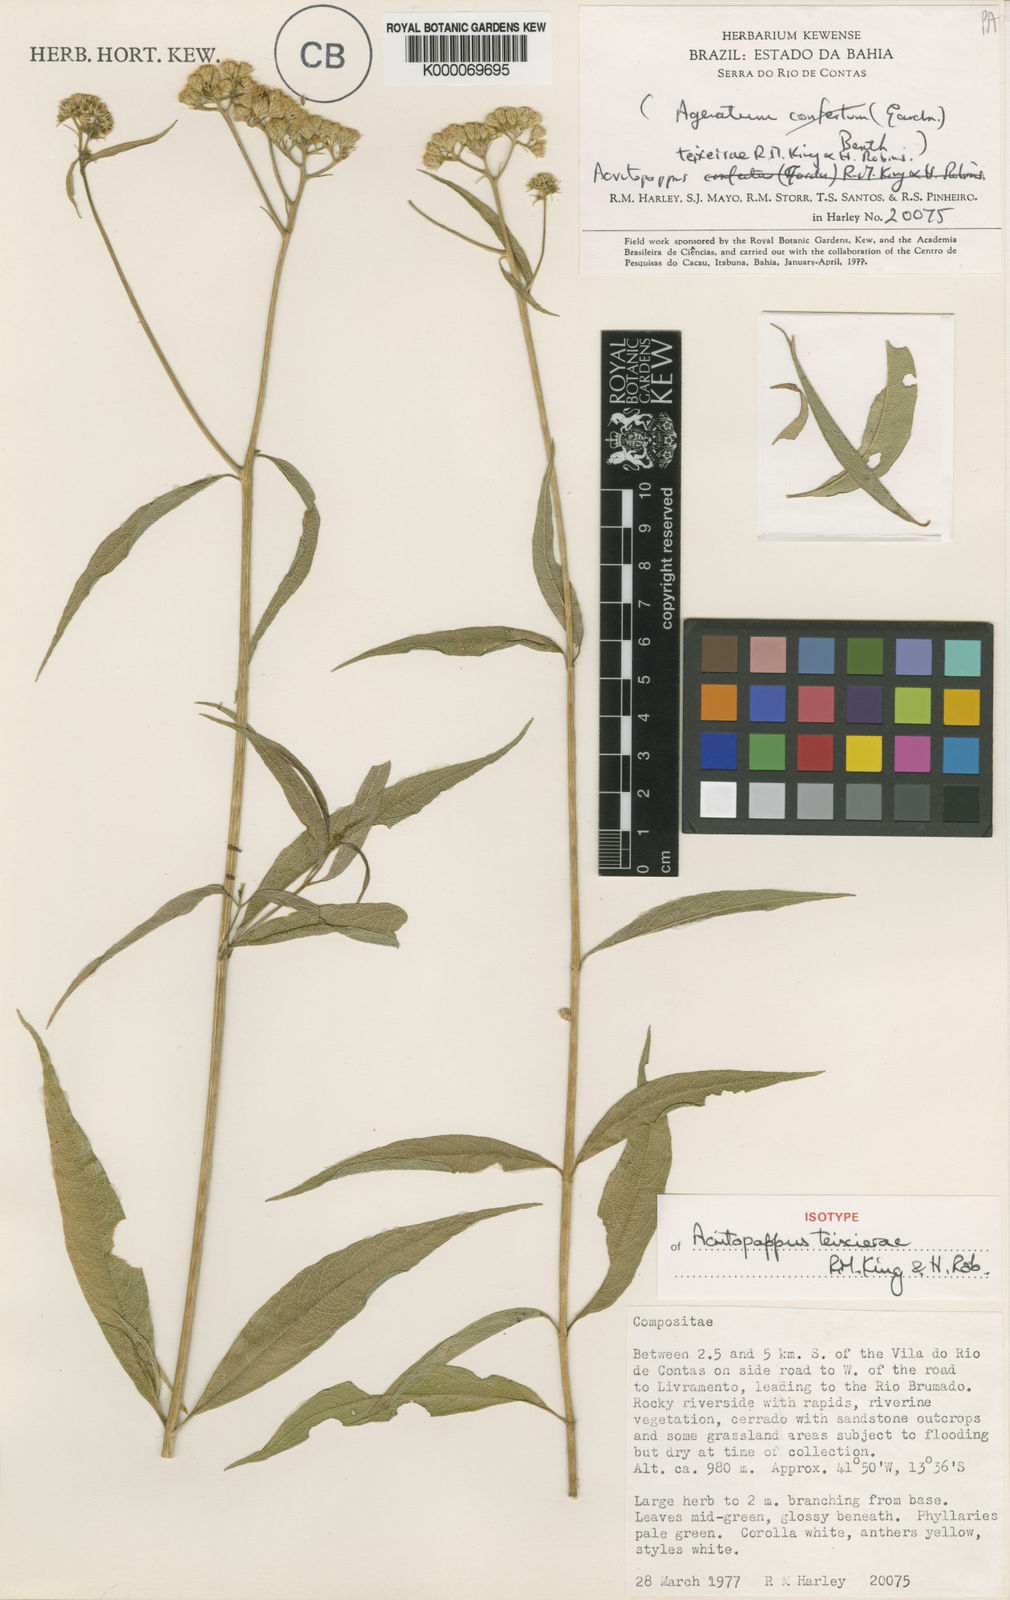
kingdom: Plantae
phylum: Tracheophyta
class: Magnoliopsida
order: Asterales
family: Asteraceae
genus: Acritopappus
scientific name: Acritopappus teixeirae
